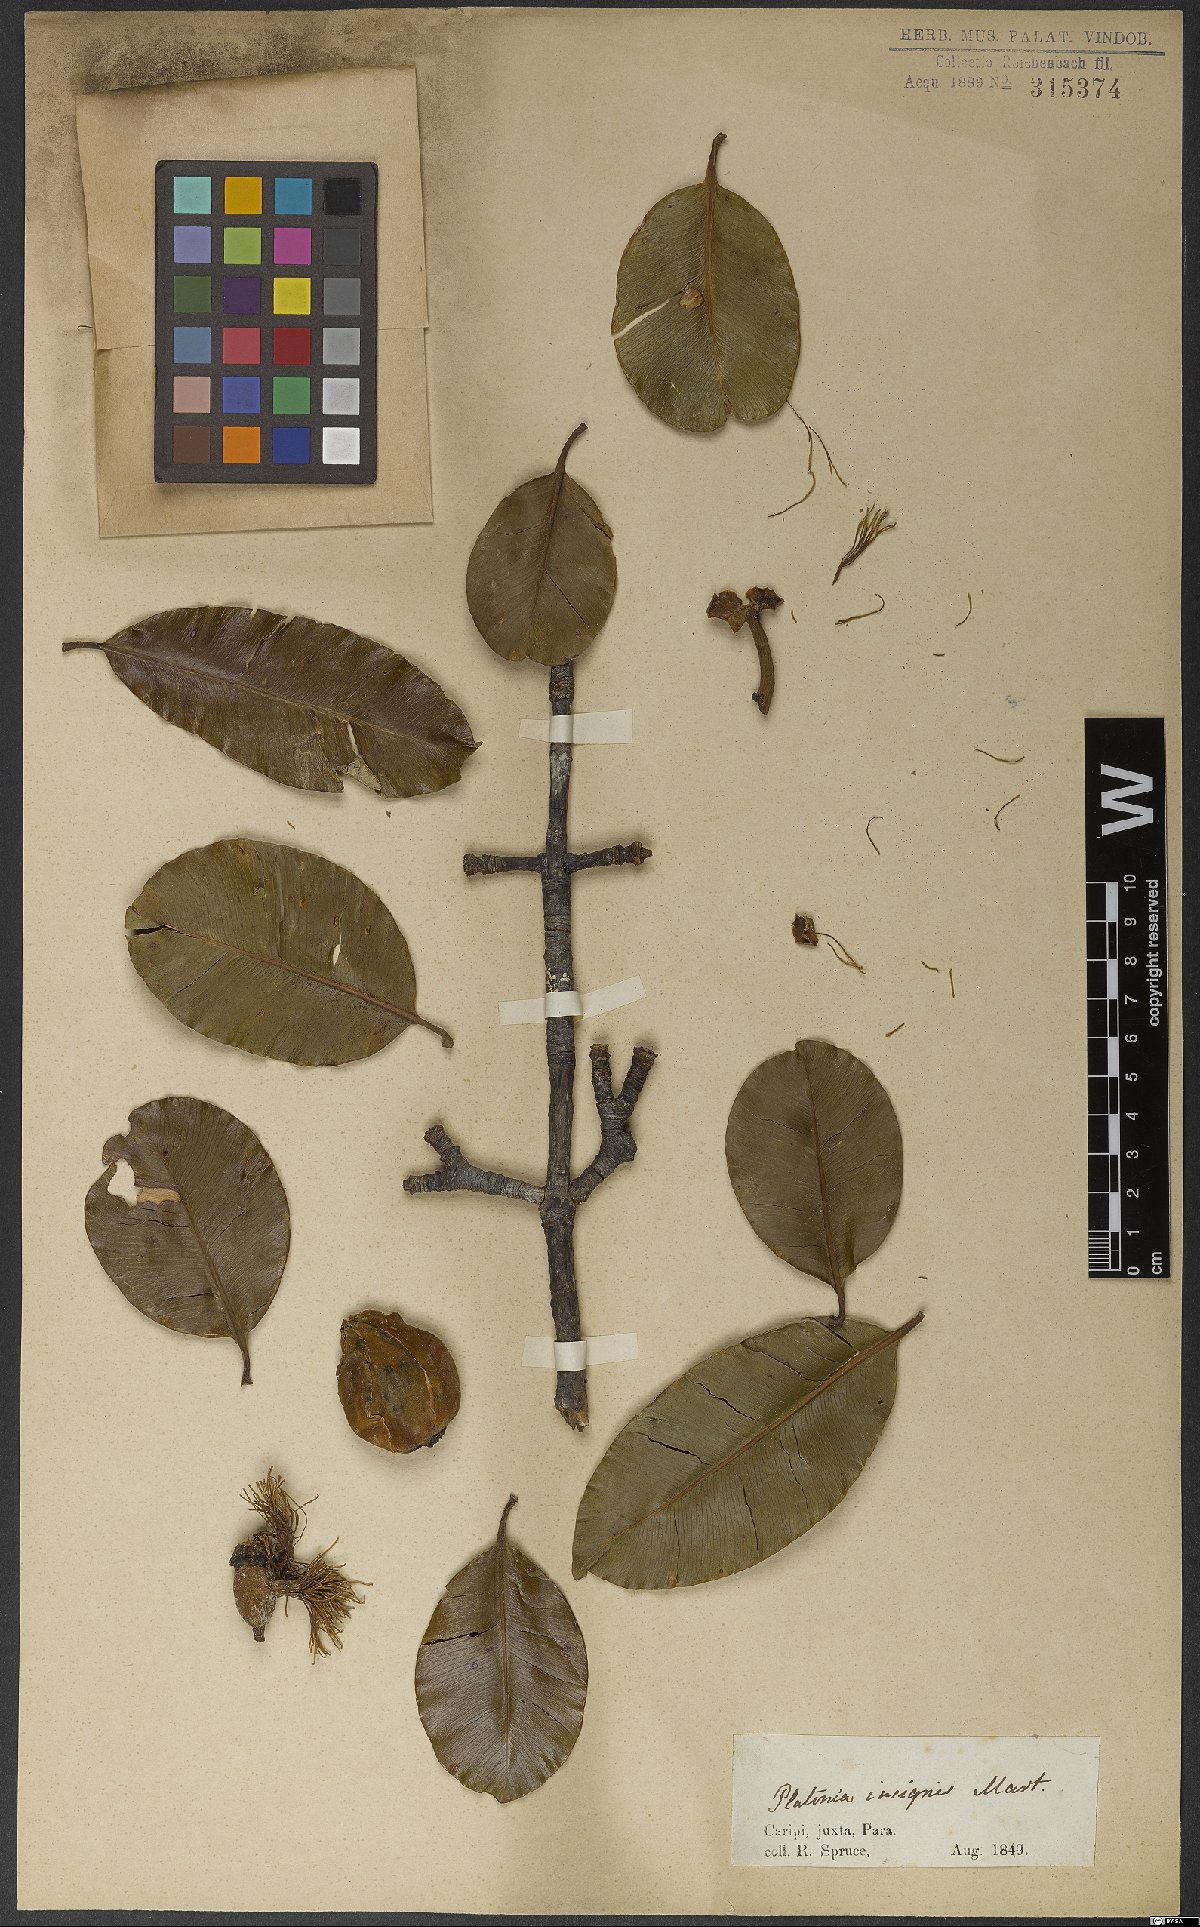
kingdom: Plantae
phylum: Tracheophyta
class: Magnoliopsida
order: Malpighiales
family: Clusiaceae
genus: Platonia
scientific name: Platonia insignis
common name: Bacury
